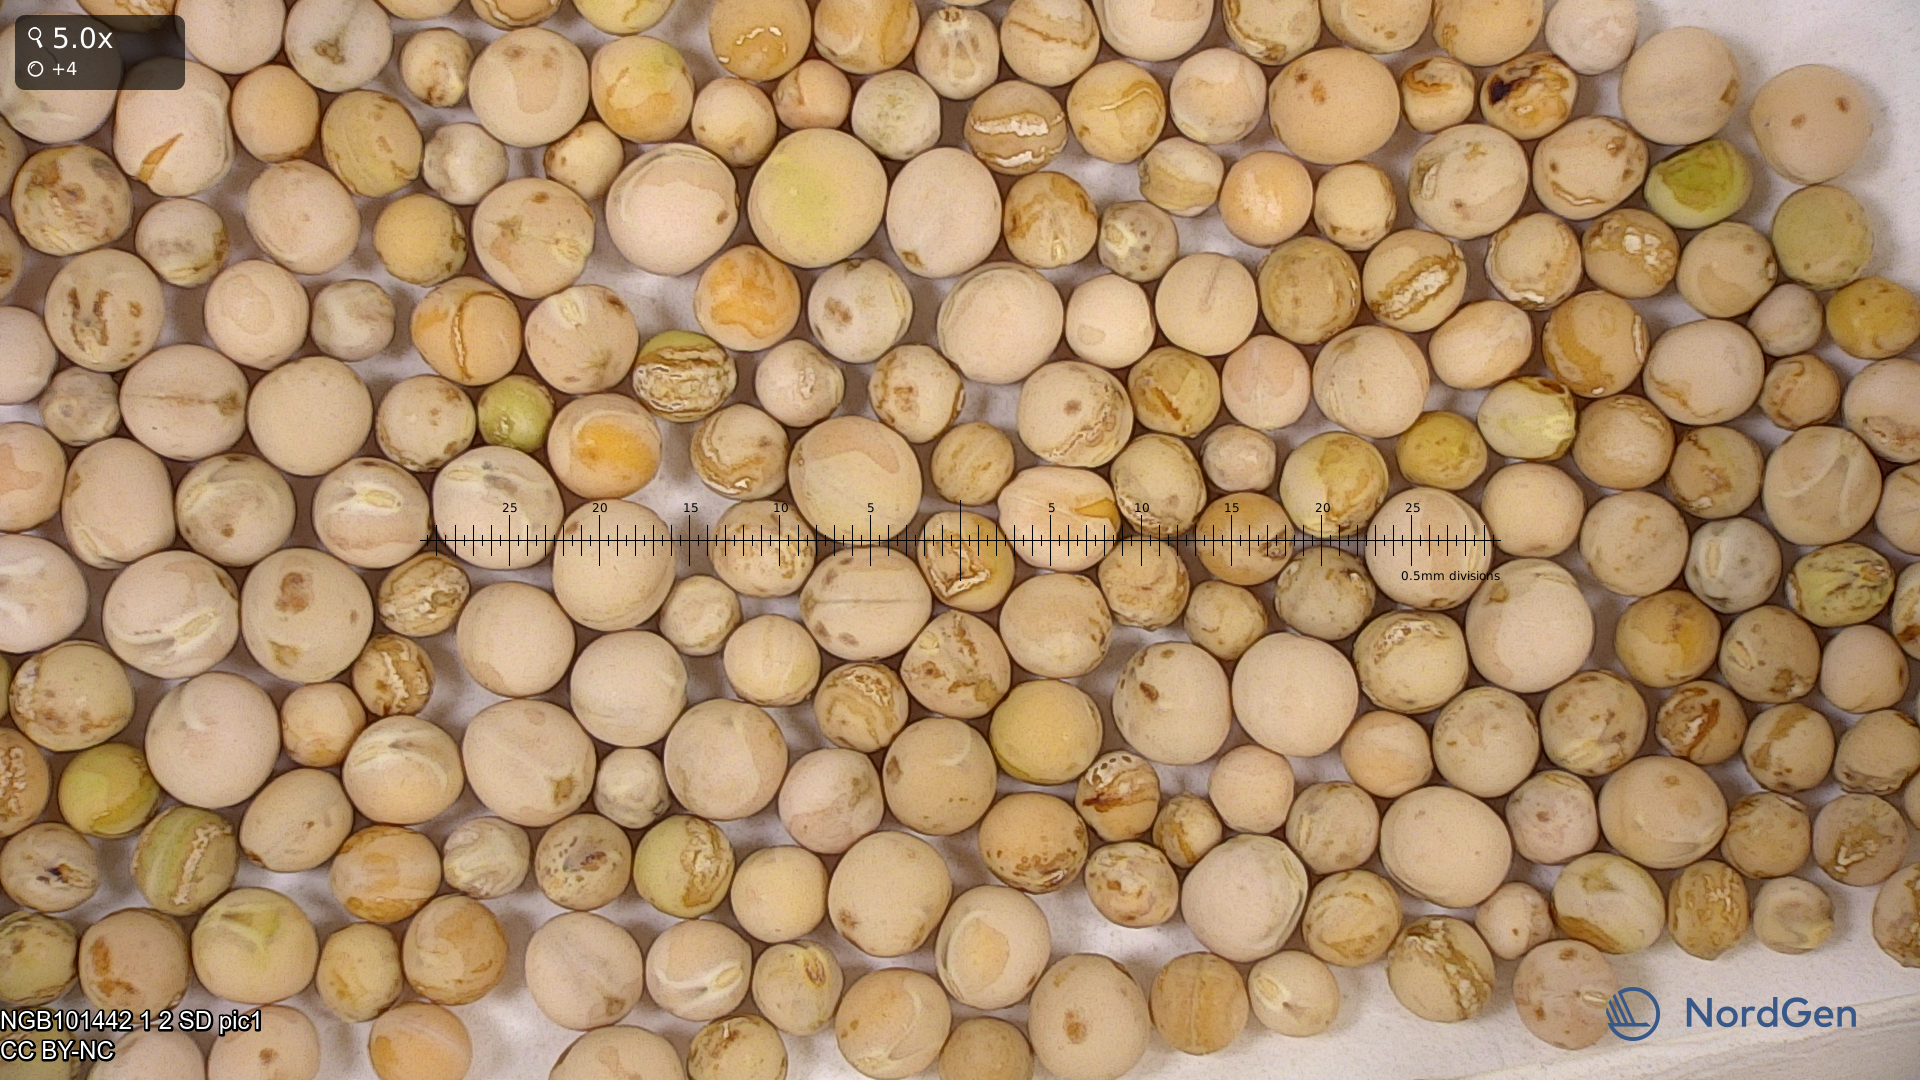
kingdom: Plantae
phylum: Tracheophyta
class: Magnoliopsida
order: Fabales
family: Fabaceae
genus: Lathyrus
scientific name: Lathyrus oleraceus
